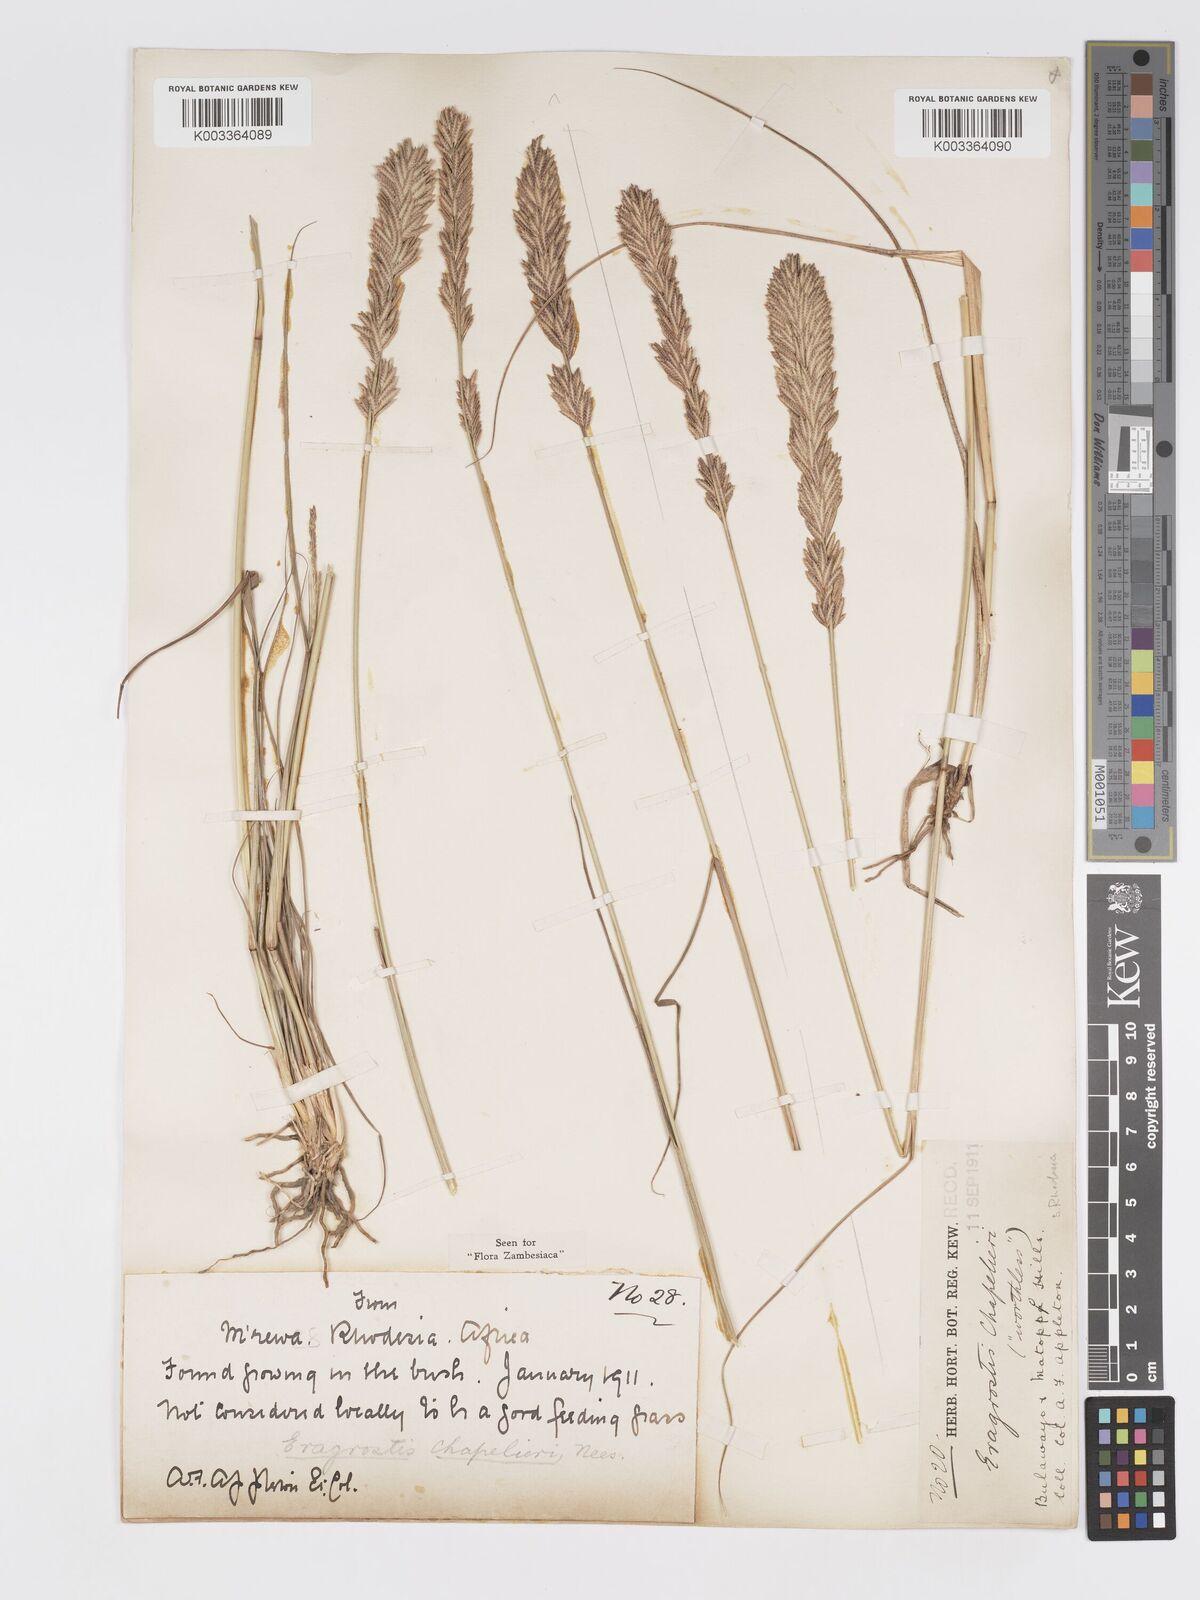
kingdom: Plantae
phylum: Tracheophyta
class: Liliopsida
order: Poales
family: Poaceae
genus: Eragrostis
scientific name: Eragrostis chapelieri
